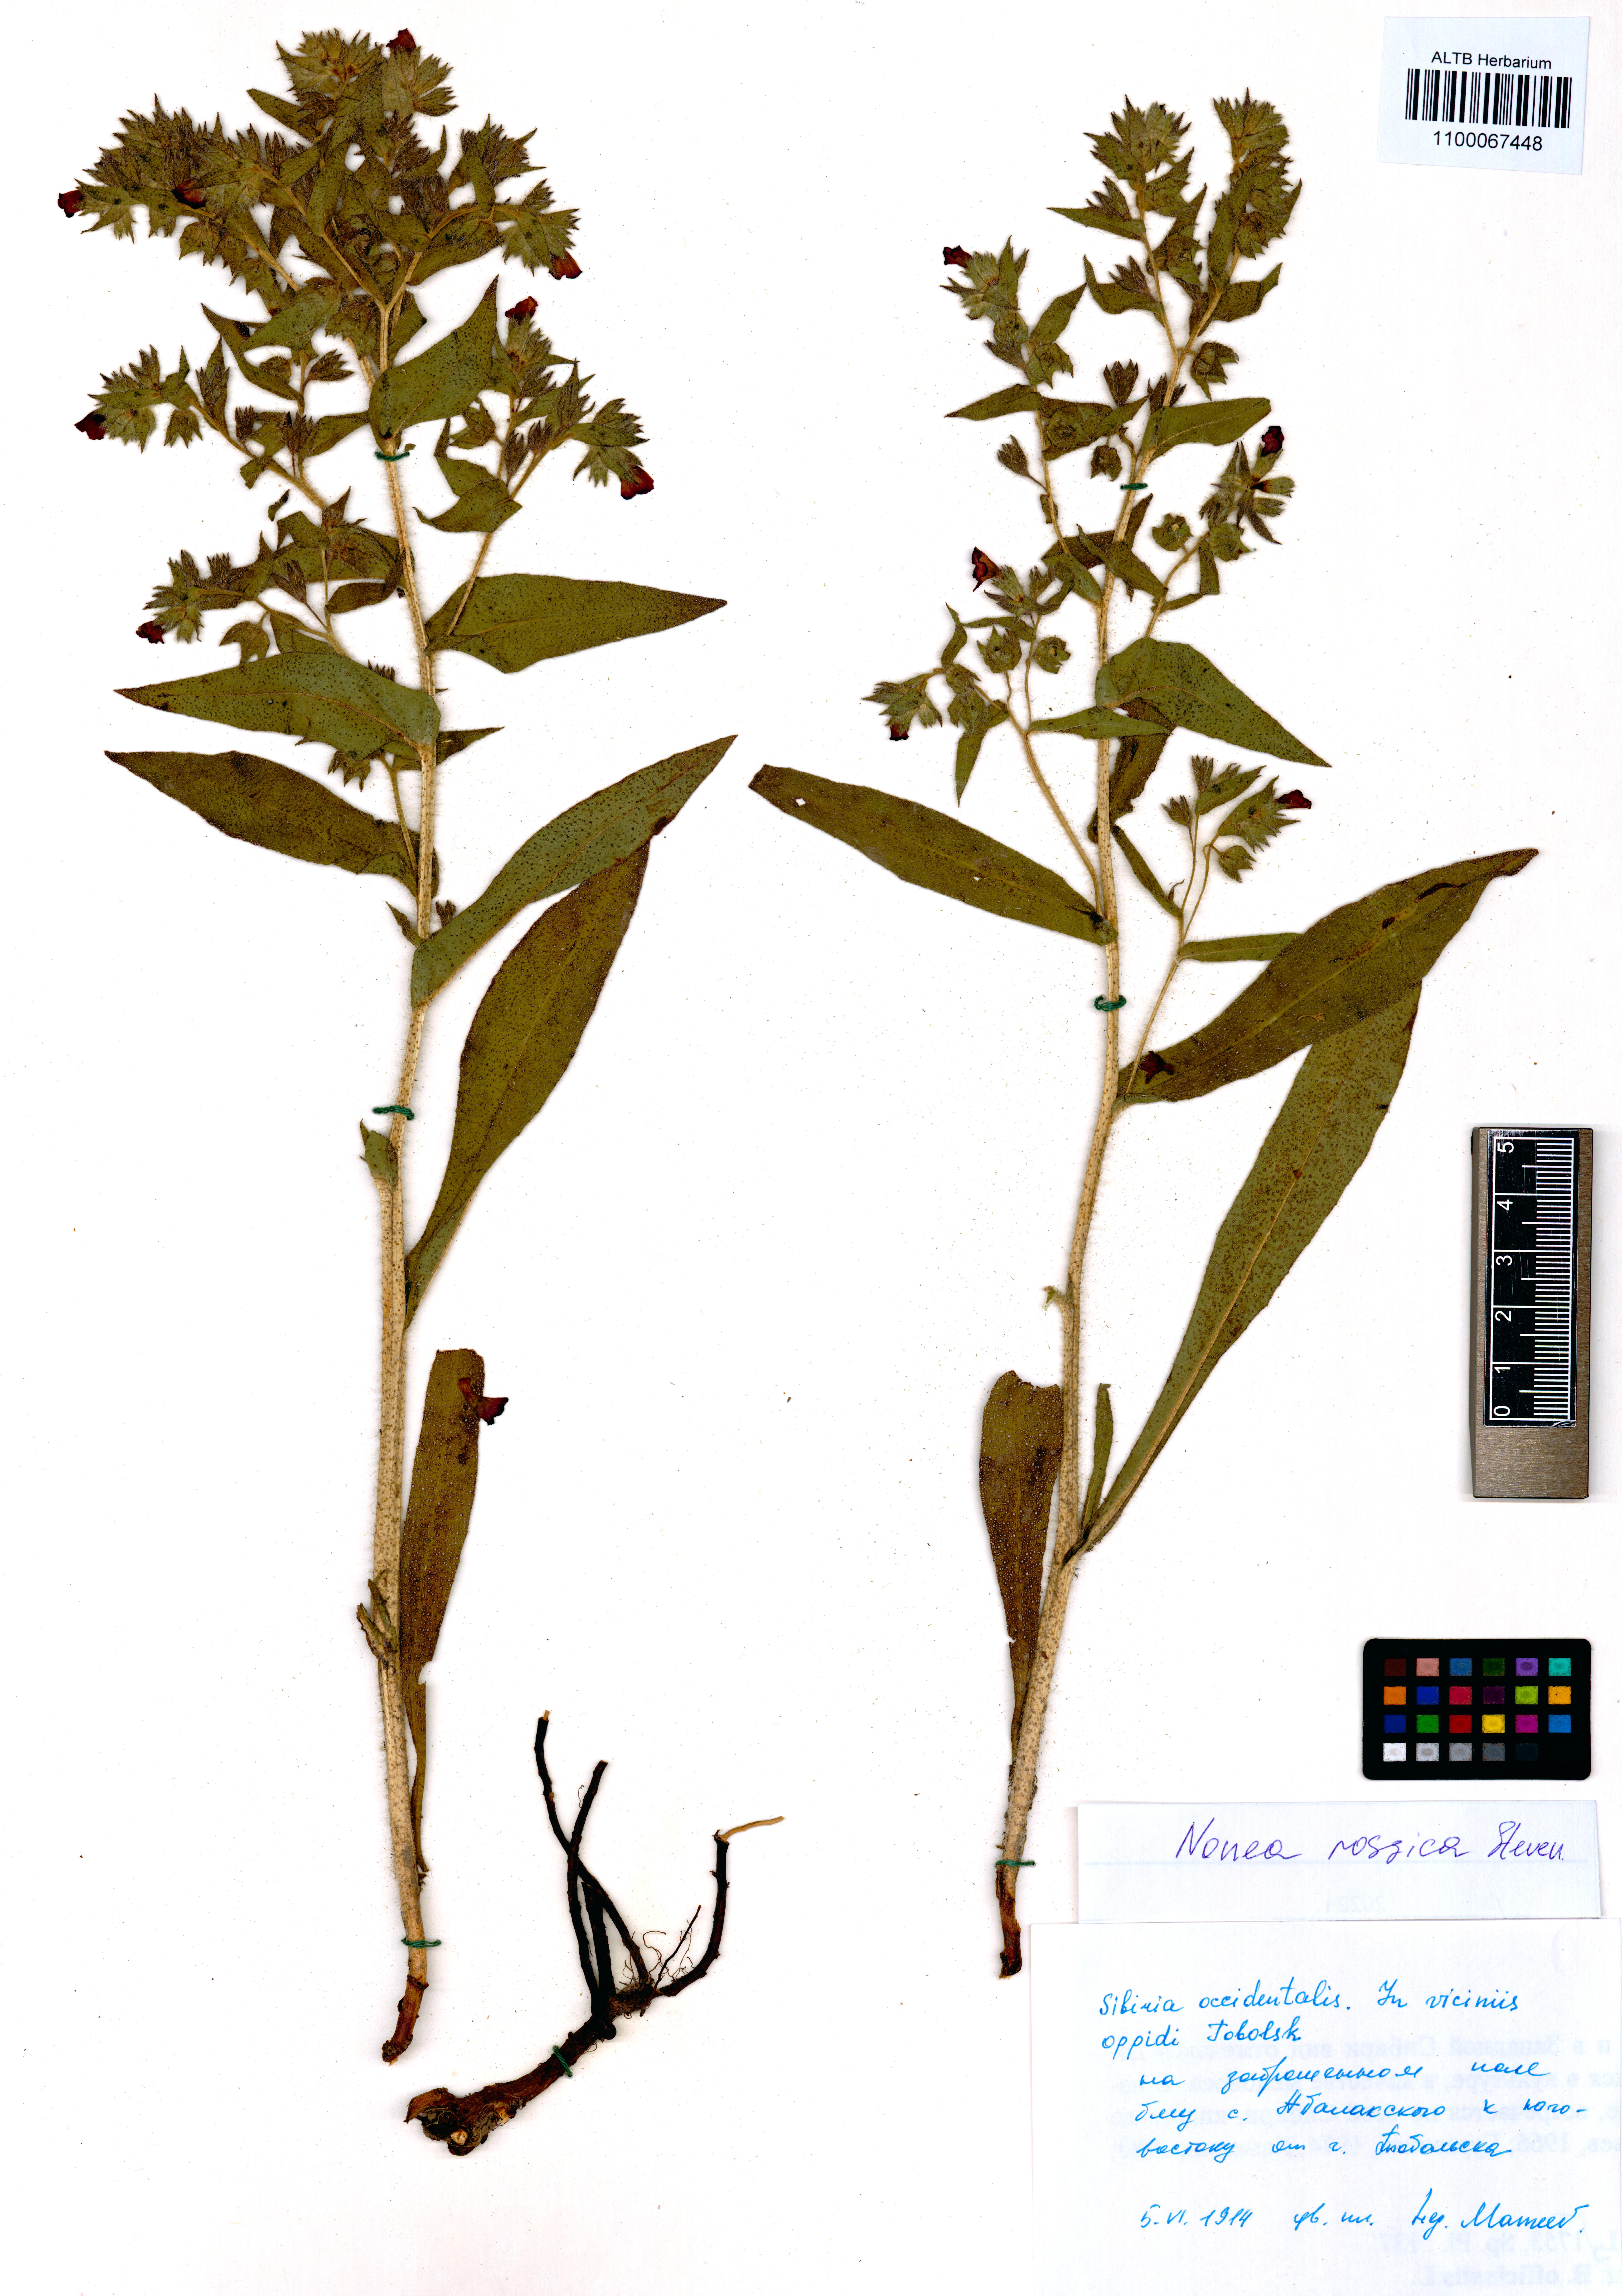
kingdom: Plantae
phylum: Tracheophyta
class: Magnoliopsida
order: Boraginales
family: Boraginaceae
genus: Nonea
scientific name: Nonea pulla
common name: Brown nonea
